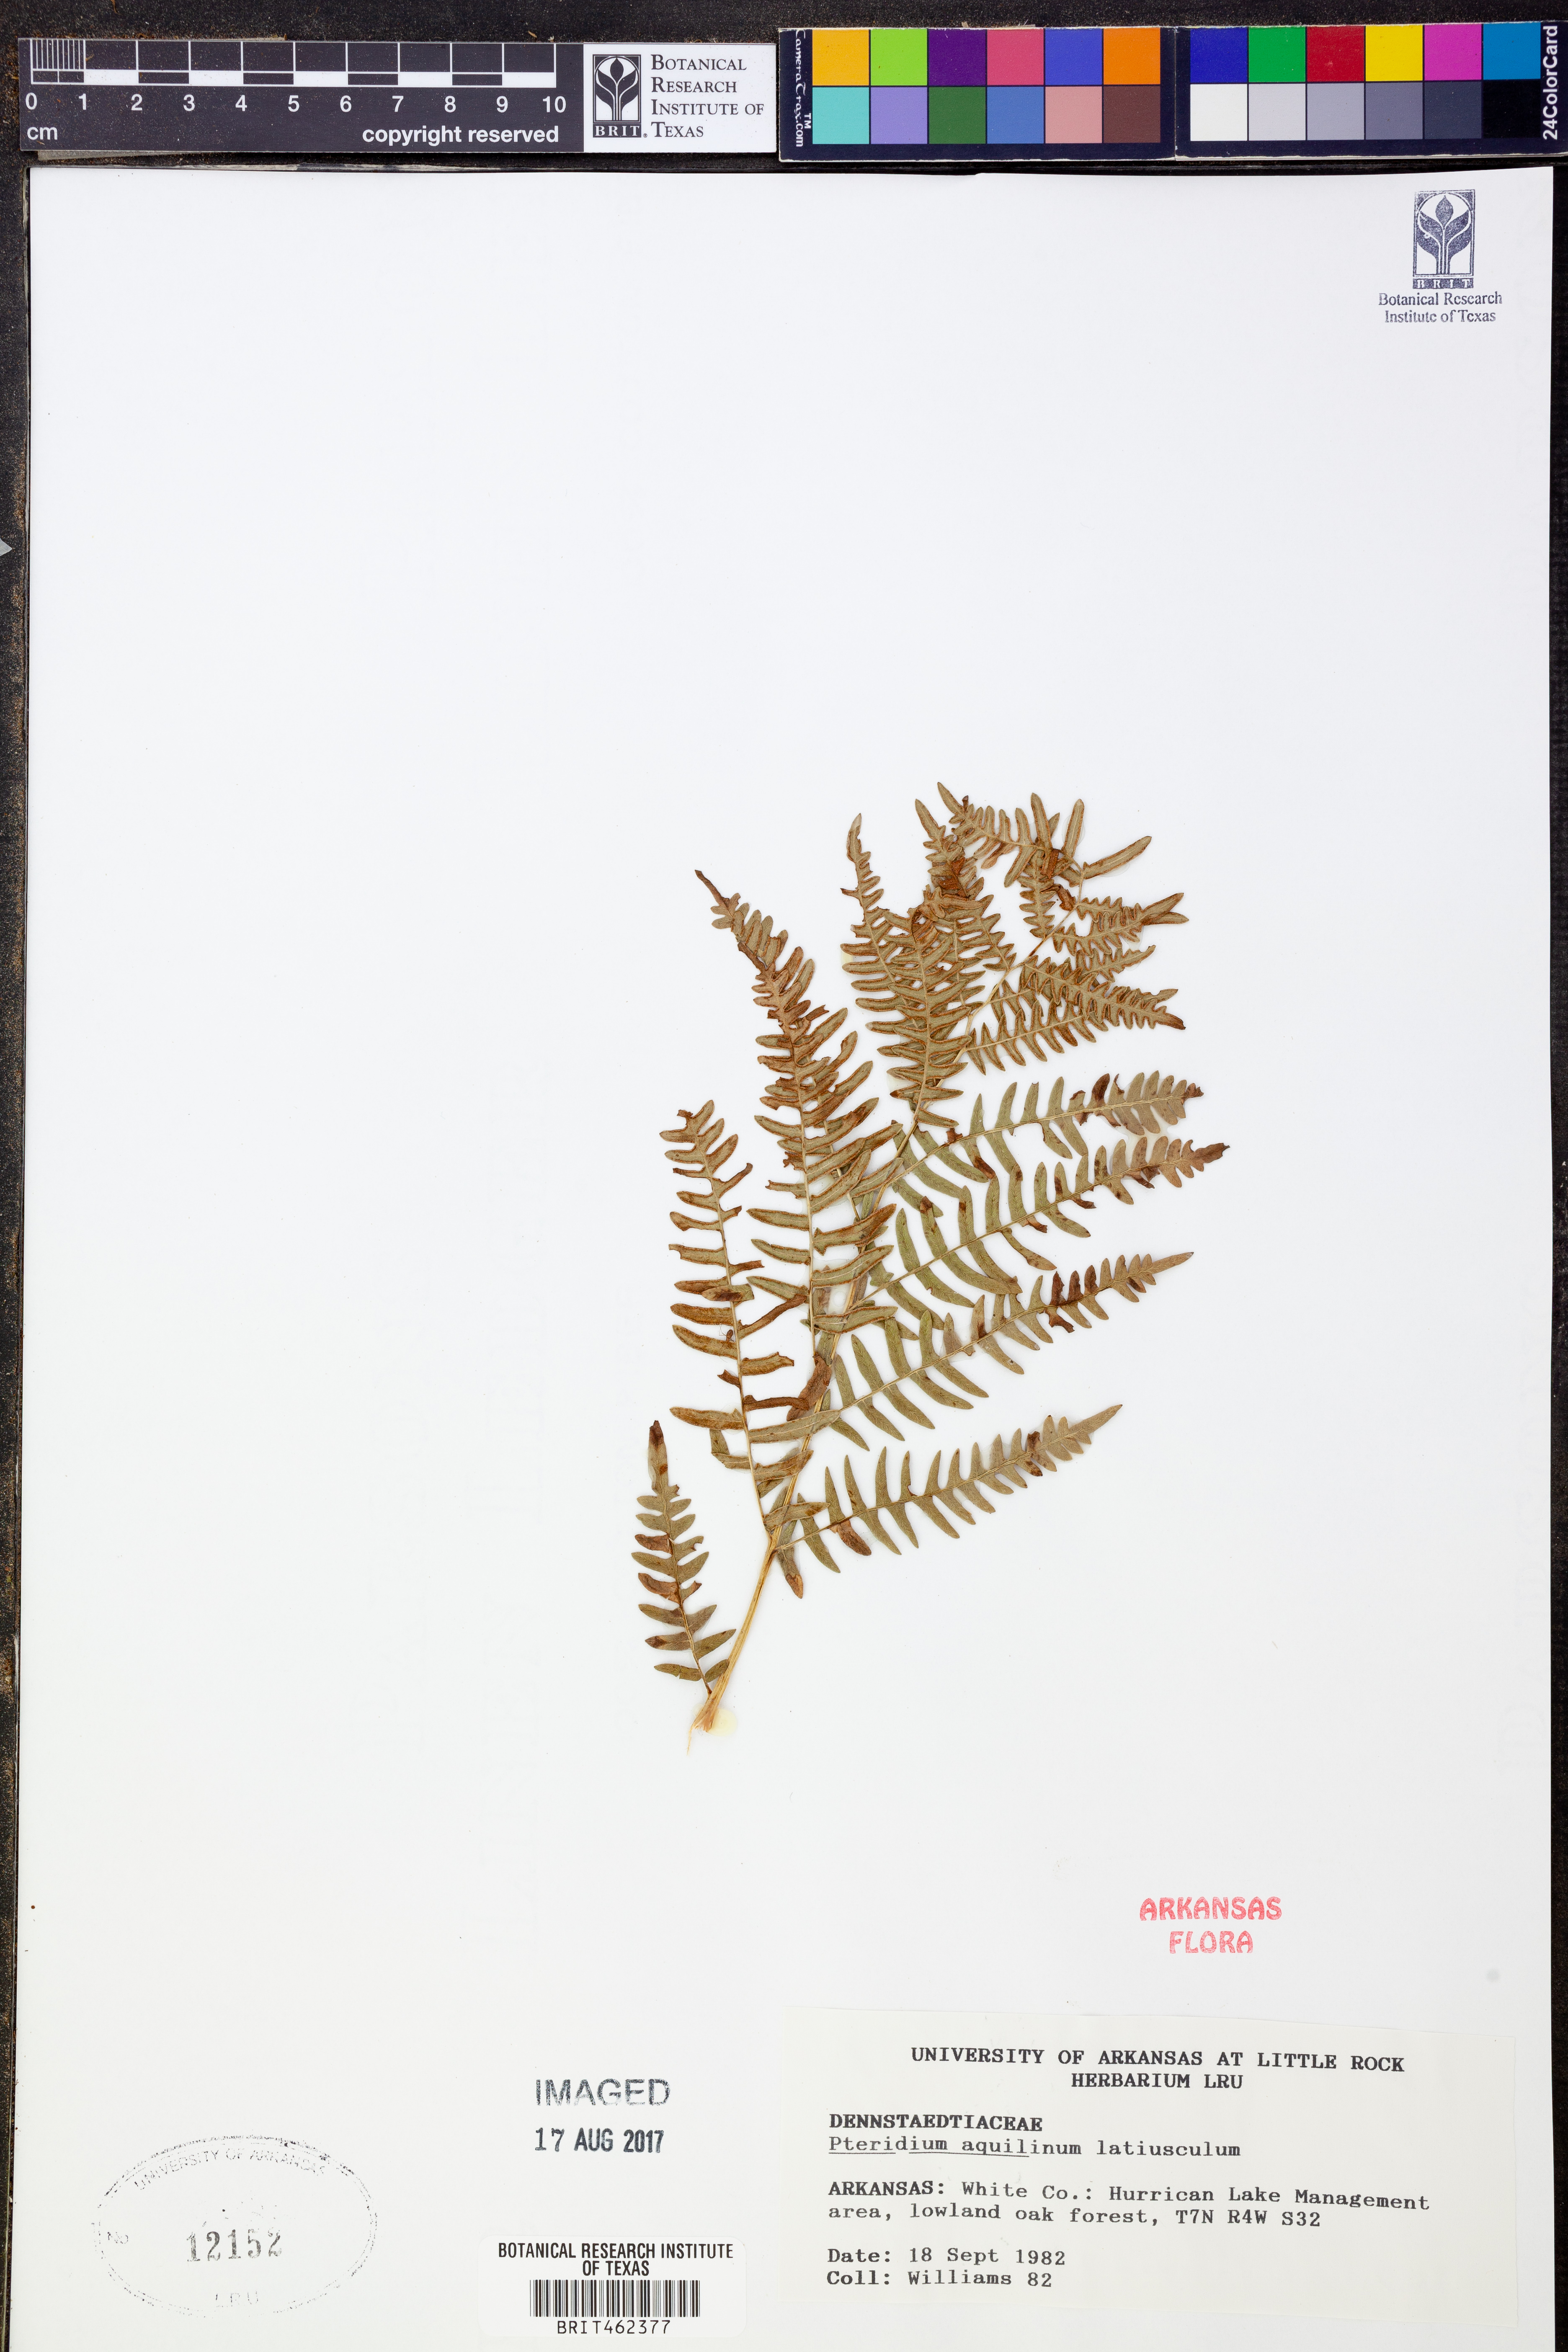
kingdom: Plantae
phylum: Tracheophyta
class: Polypodiopsida
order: Polypodiales
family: Dennstaedtiaceae
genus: Pteridium
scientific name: Pteridium aquilinum
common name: Bracken
